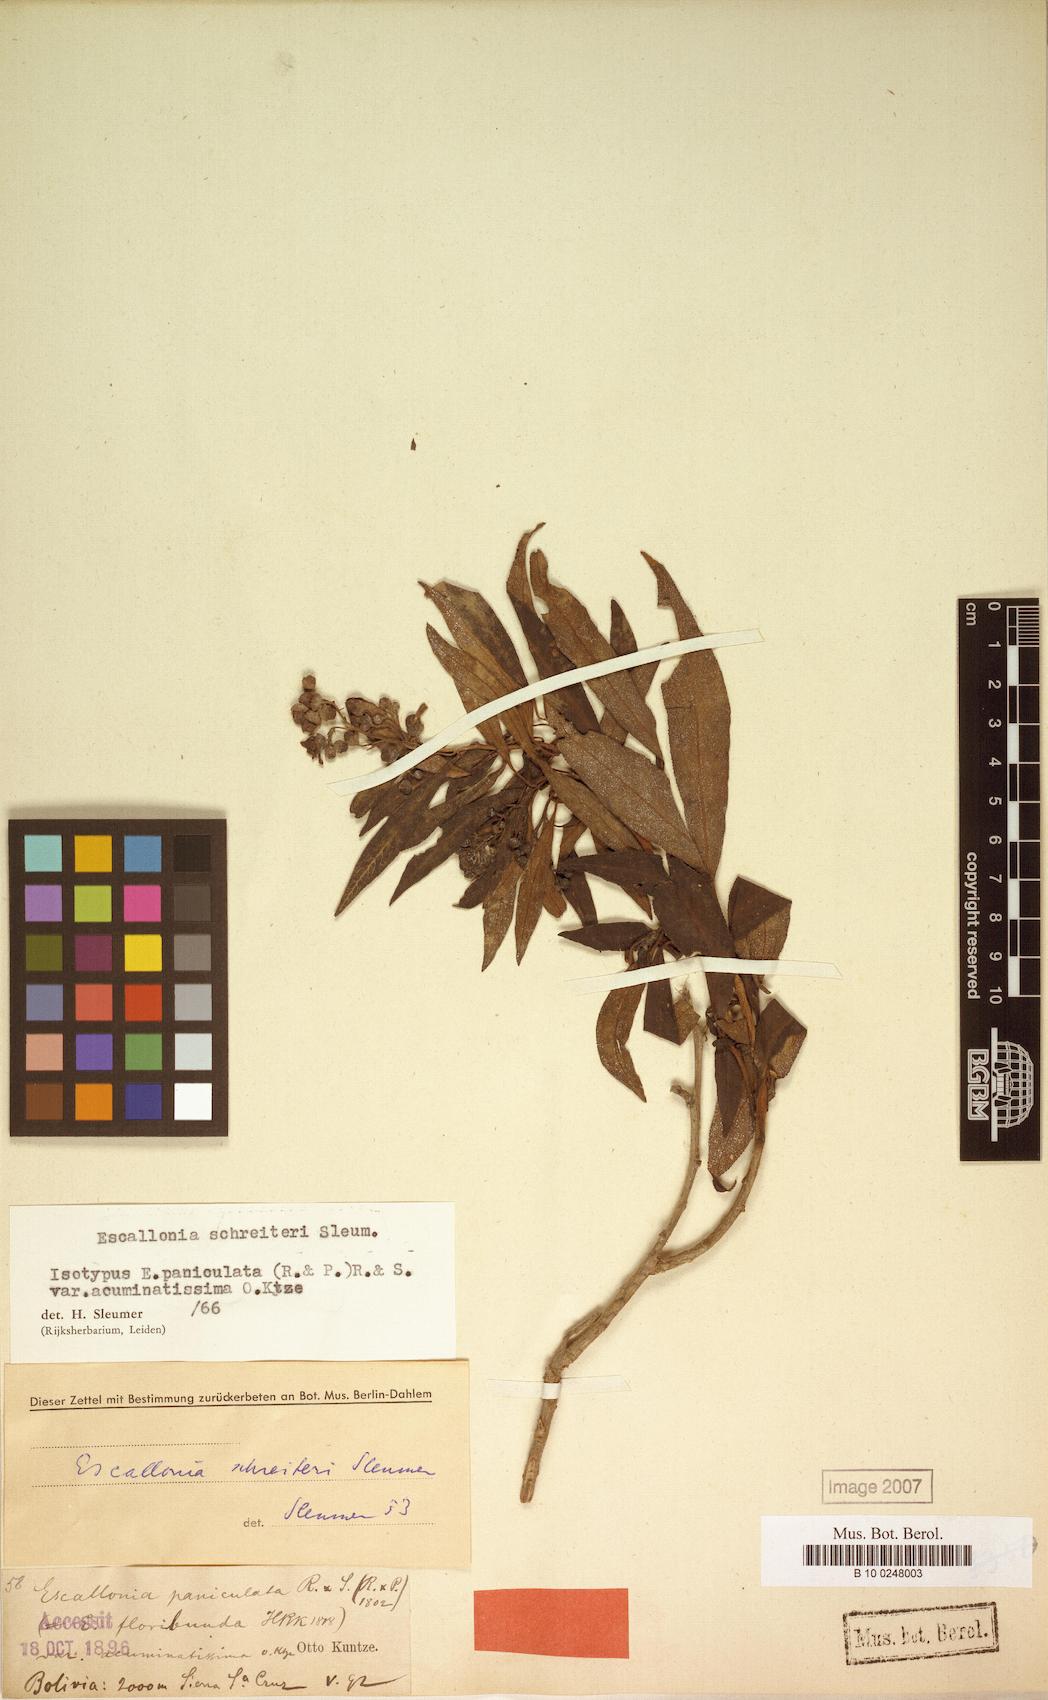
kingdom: Plantae
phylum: Tracheophyta
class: Magnoliopsida
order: Escalloniales
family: Escalloniaceae
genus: Escallonia
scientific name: Escallonia schreiteri
